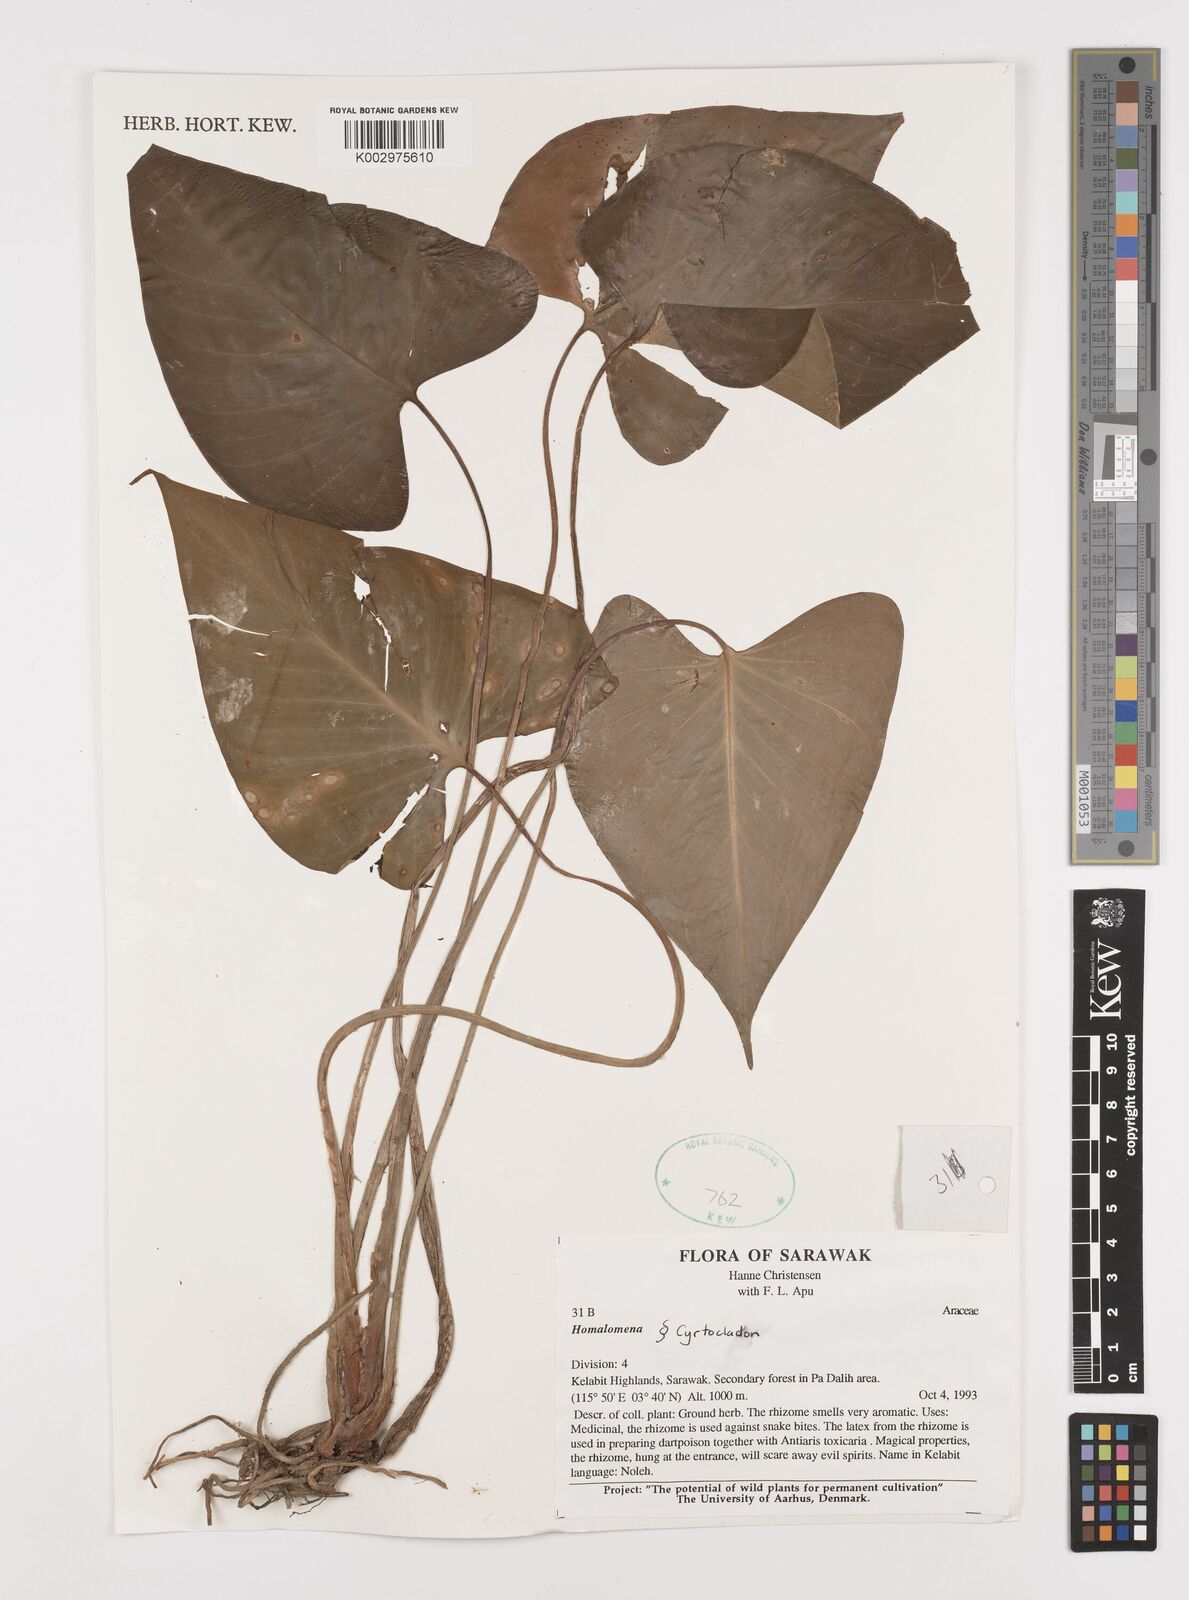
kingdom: Plantae
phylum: Tracheophyta
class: Liliopsida
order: Alismatales
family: Araceae
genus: Homalomena
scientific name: Homalomena
